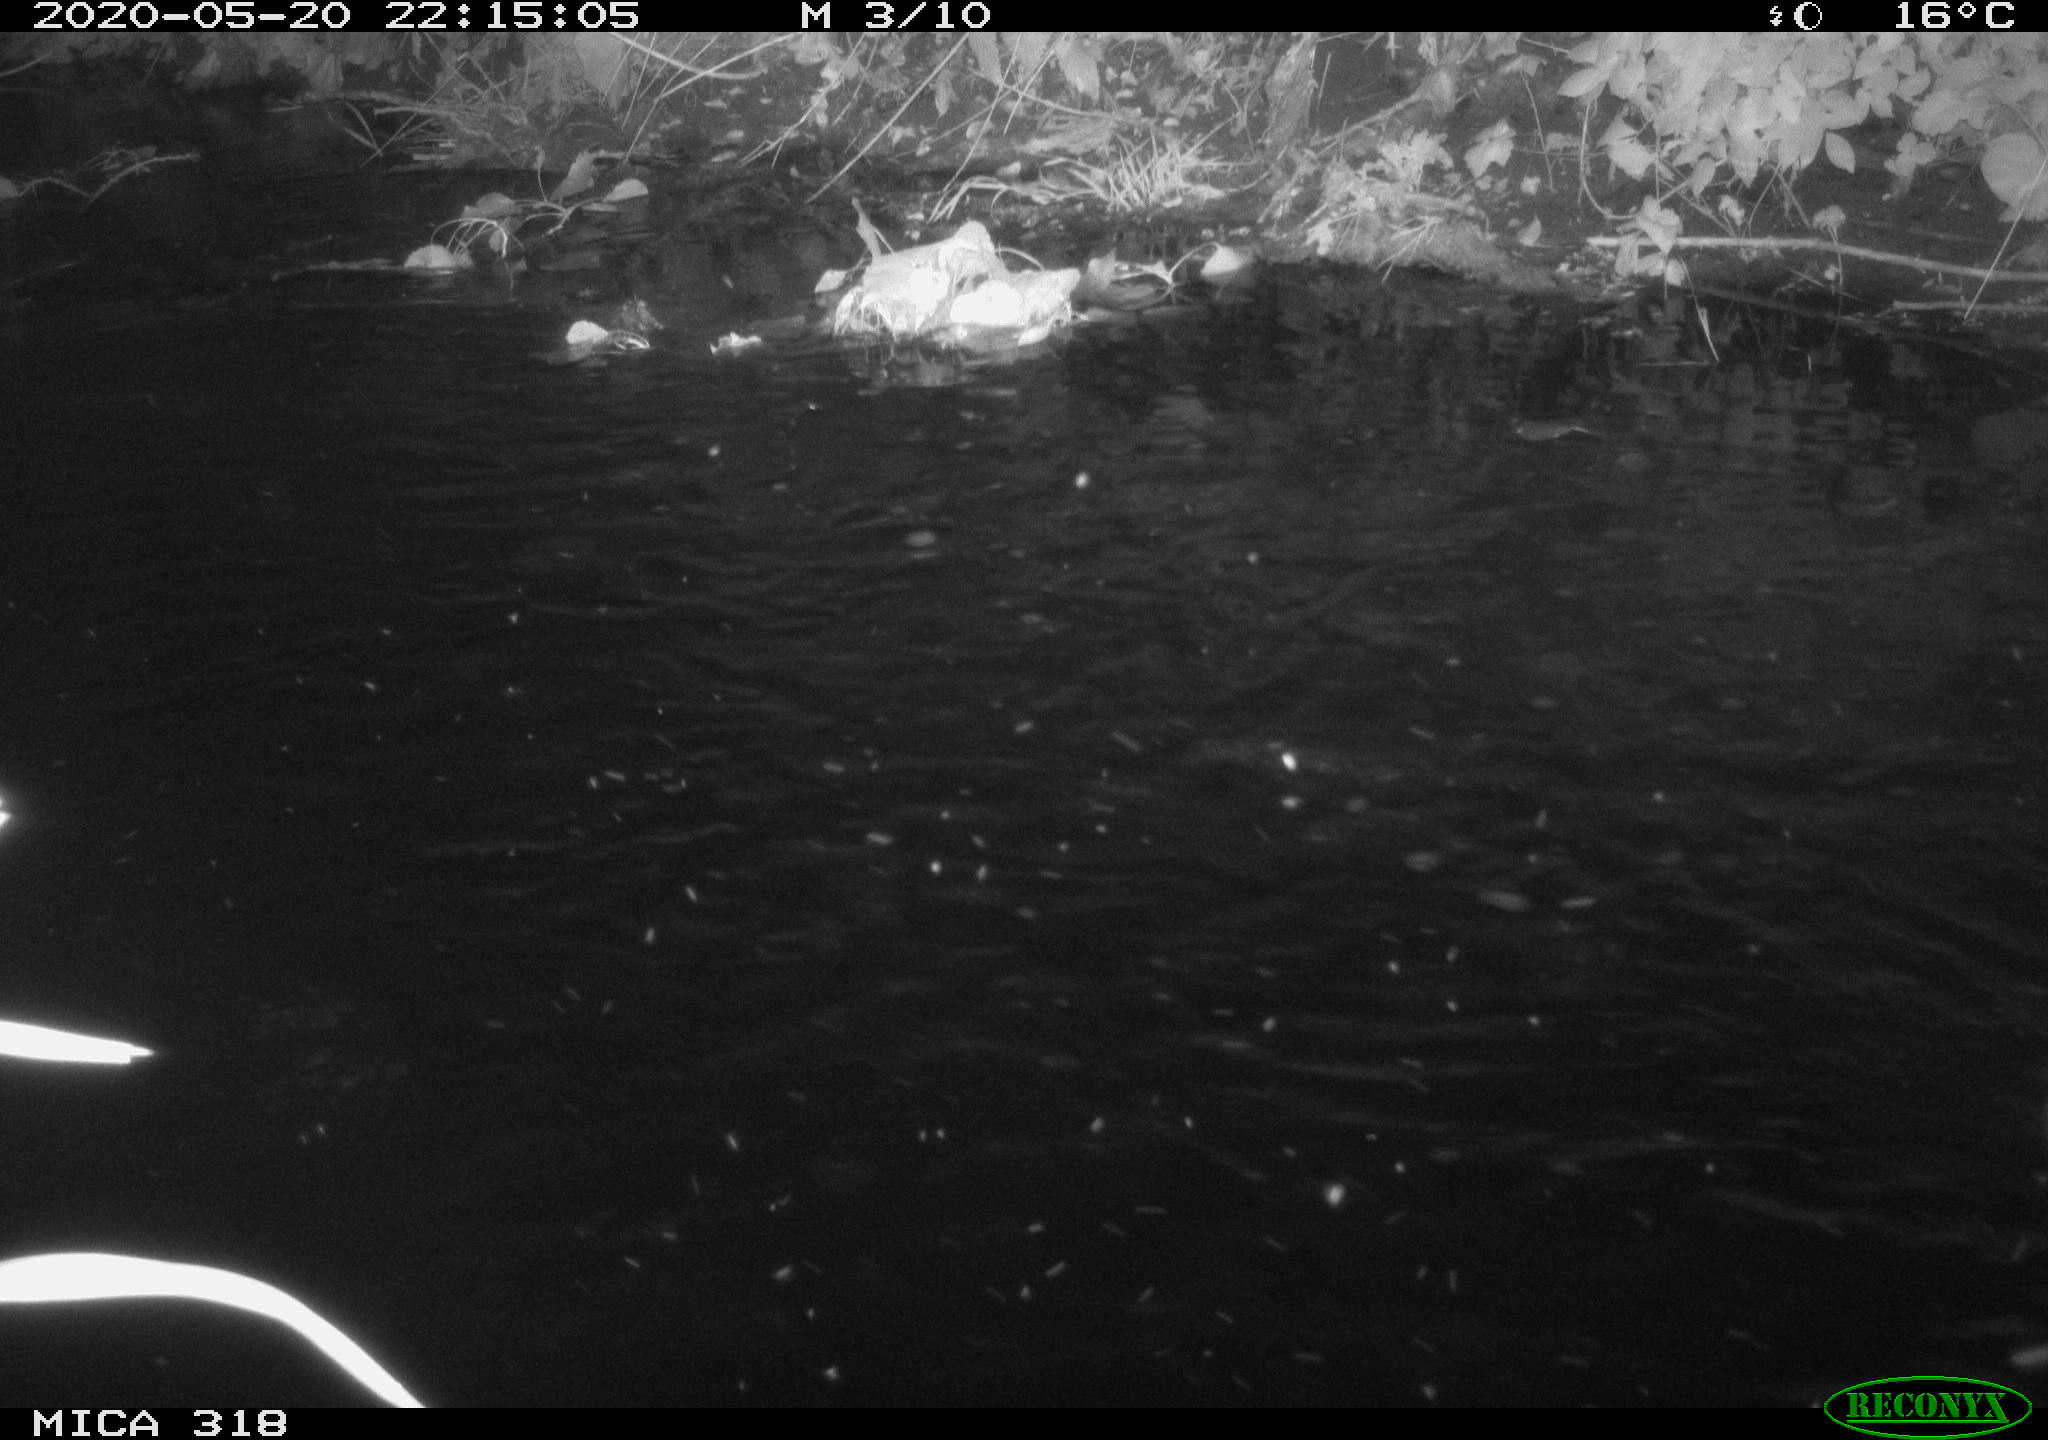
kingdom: Animalia
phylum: Chordata
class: Aves
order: Pelecaniformes
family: Ardeidae
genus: Ardea
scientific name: Ardea cinerea
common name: Grey heron
